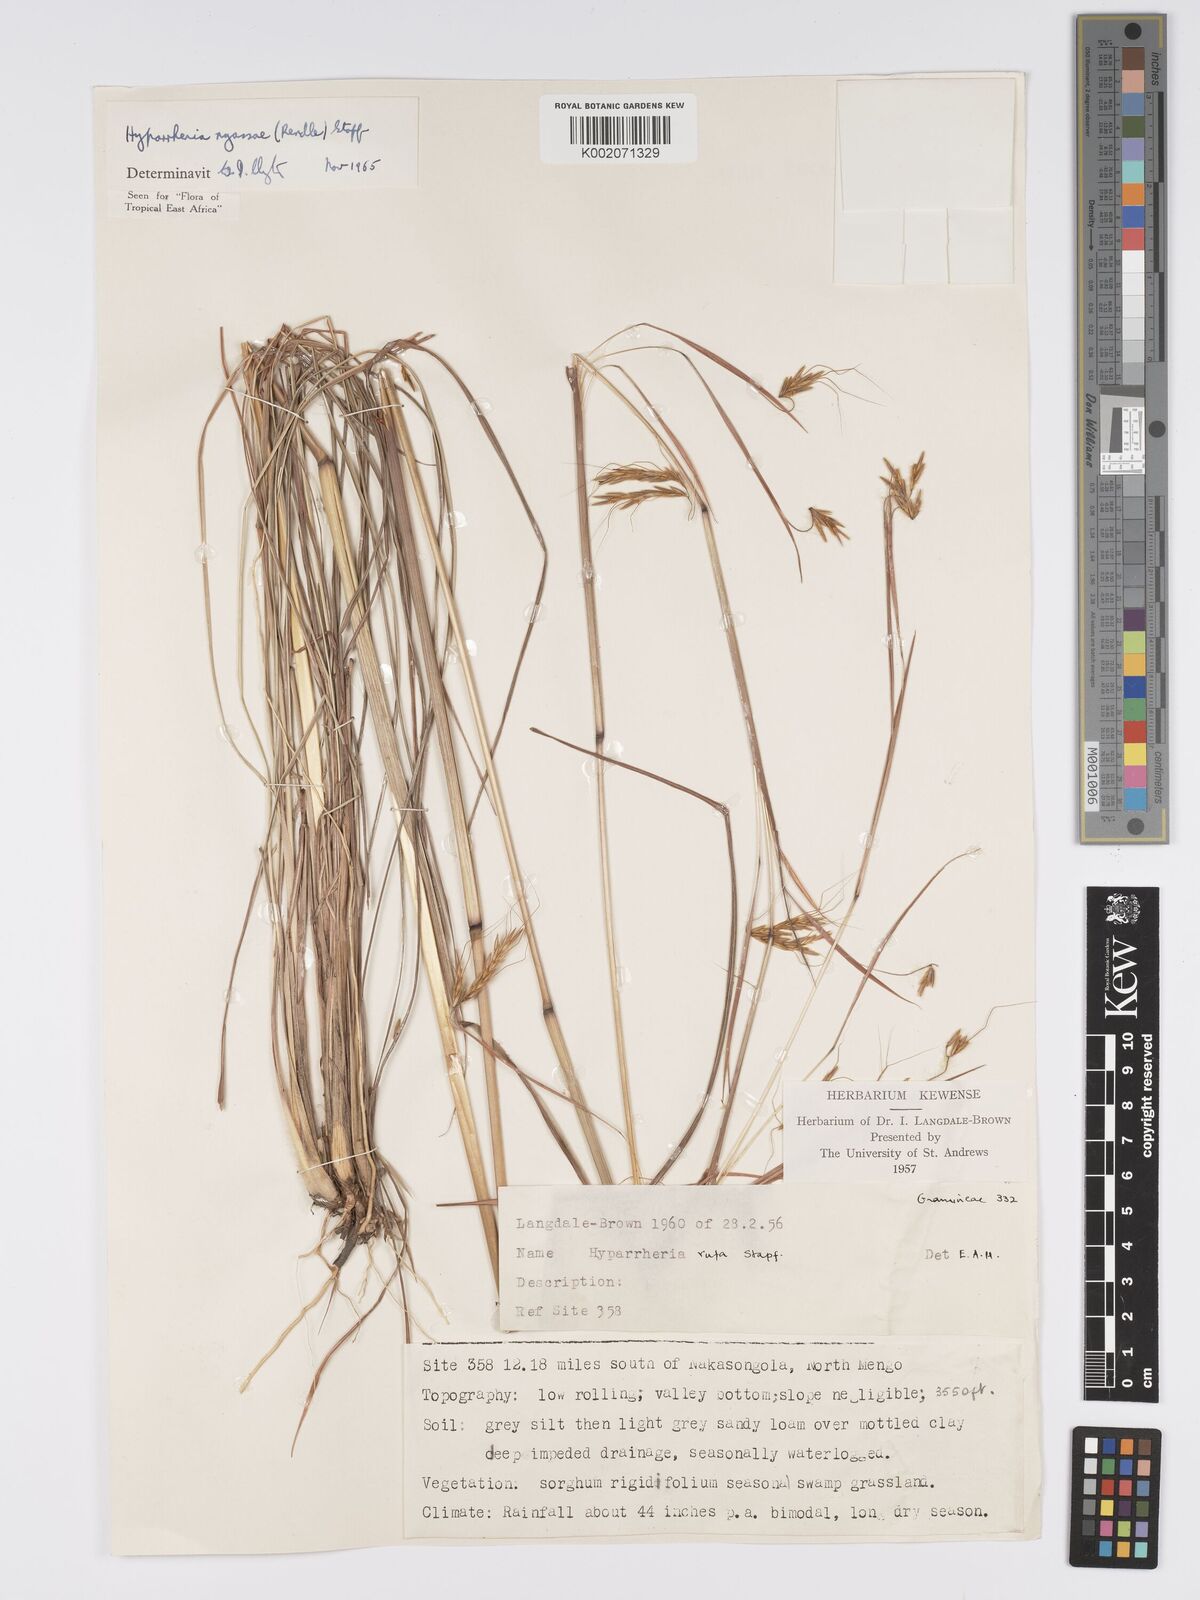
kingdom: Plantae
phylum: Tracheophyta
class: Liliopsida
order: Poales
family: Poaceae
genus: Hyparrhenia
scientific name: Hyparrhenia nyassae
